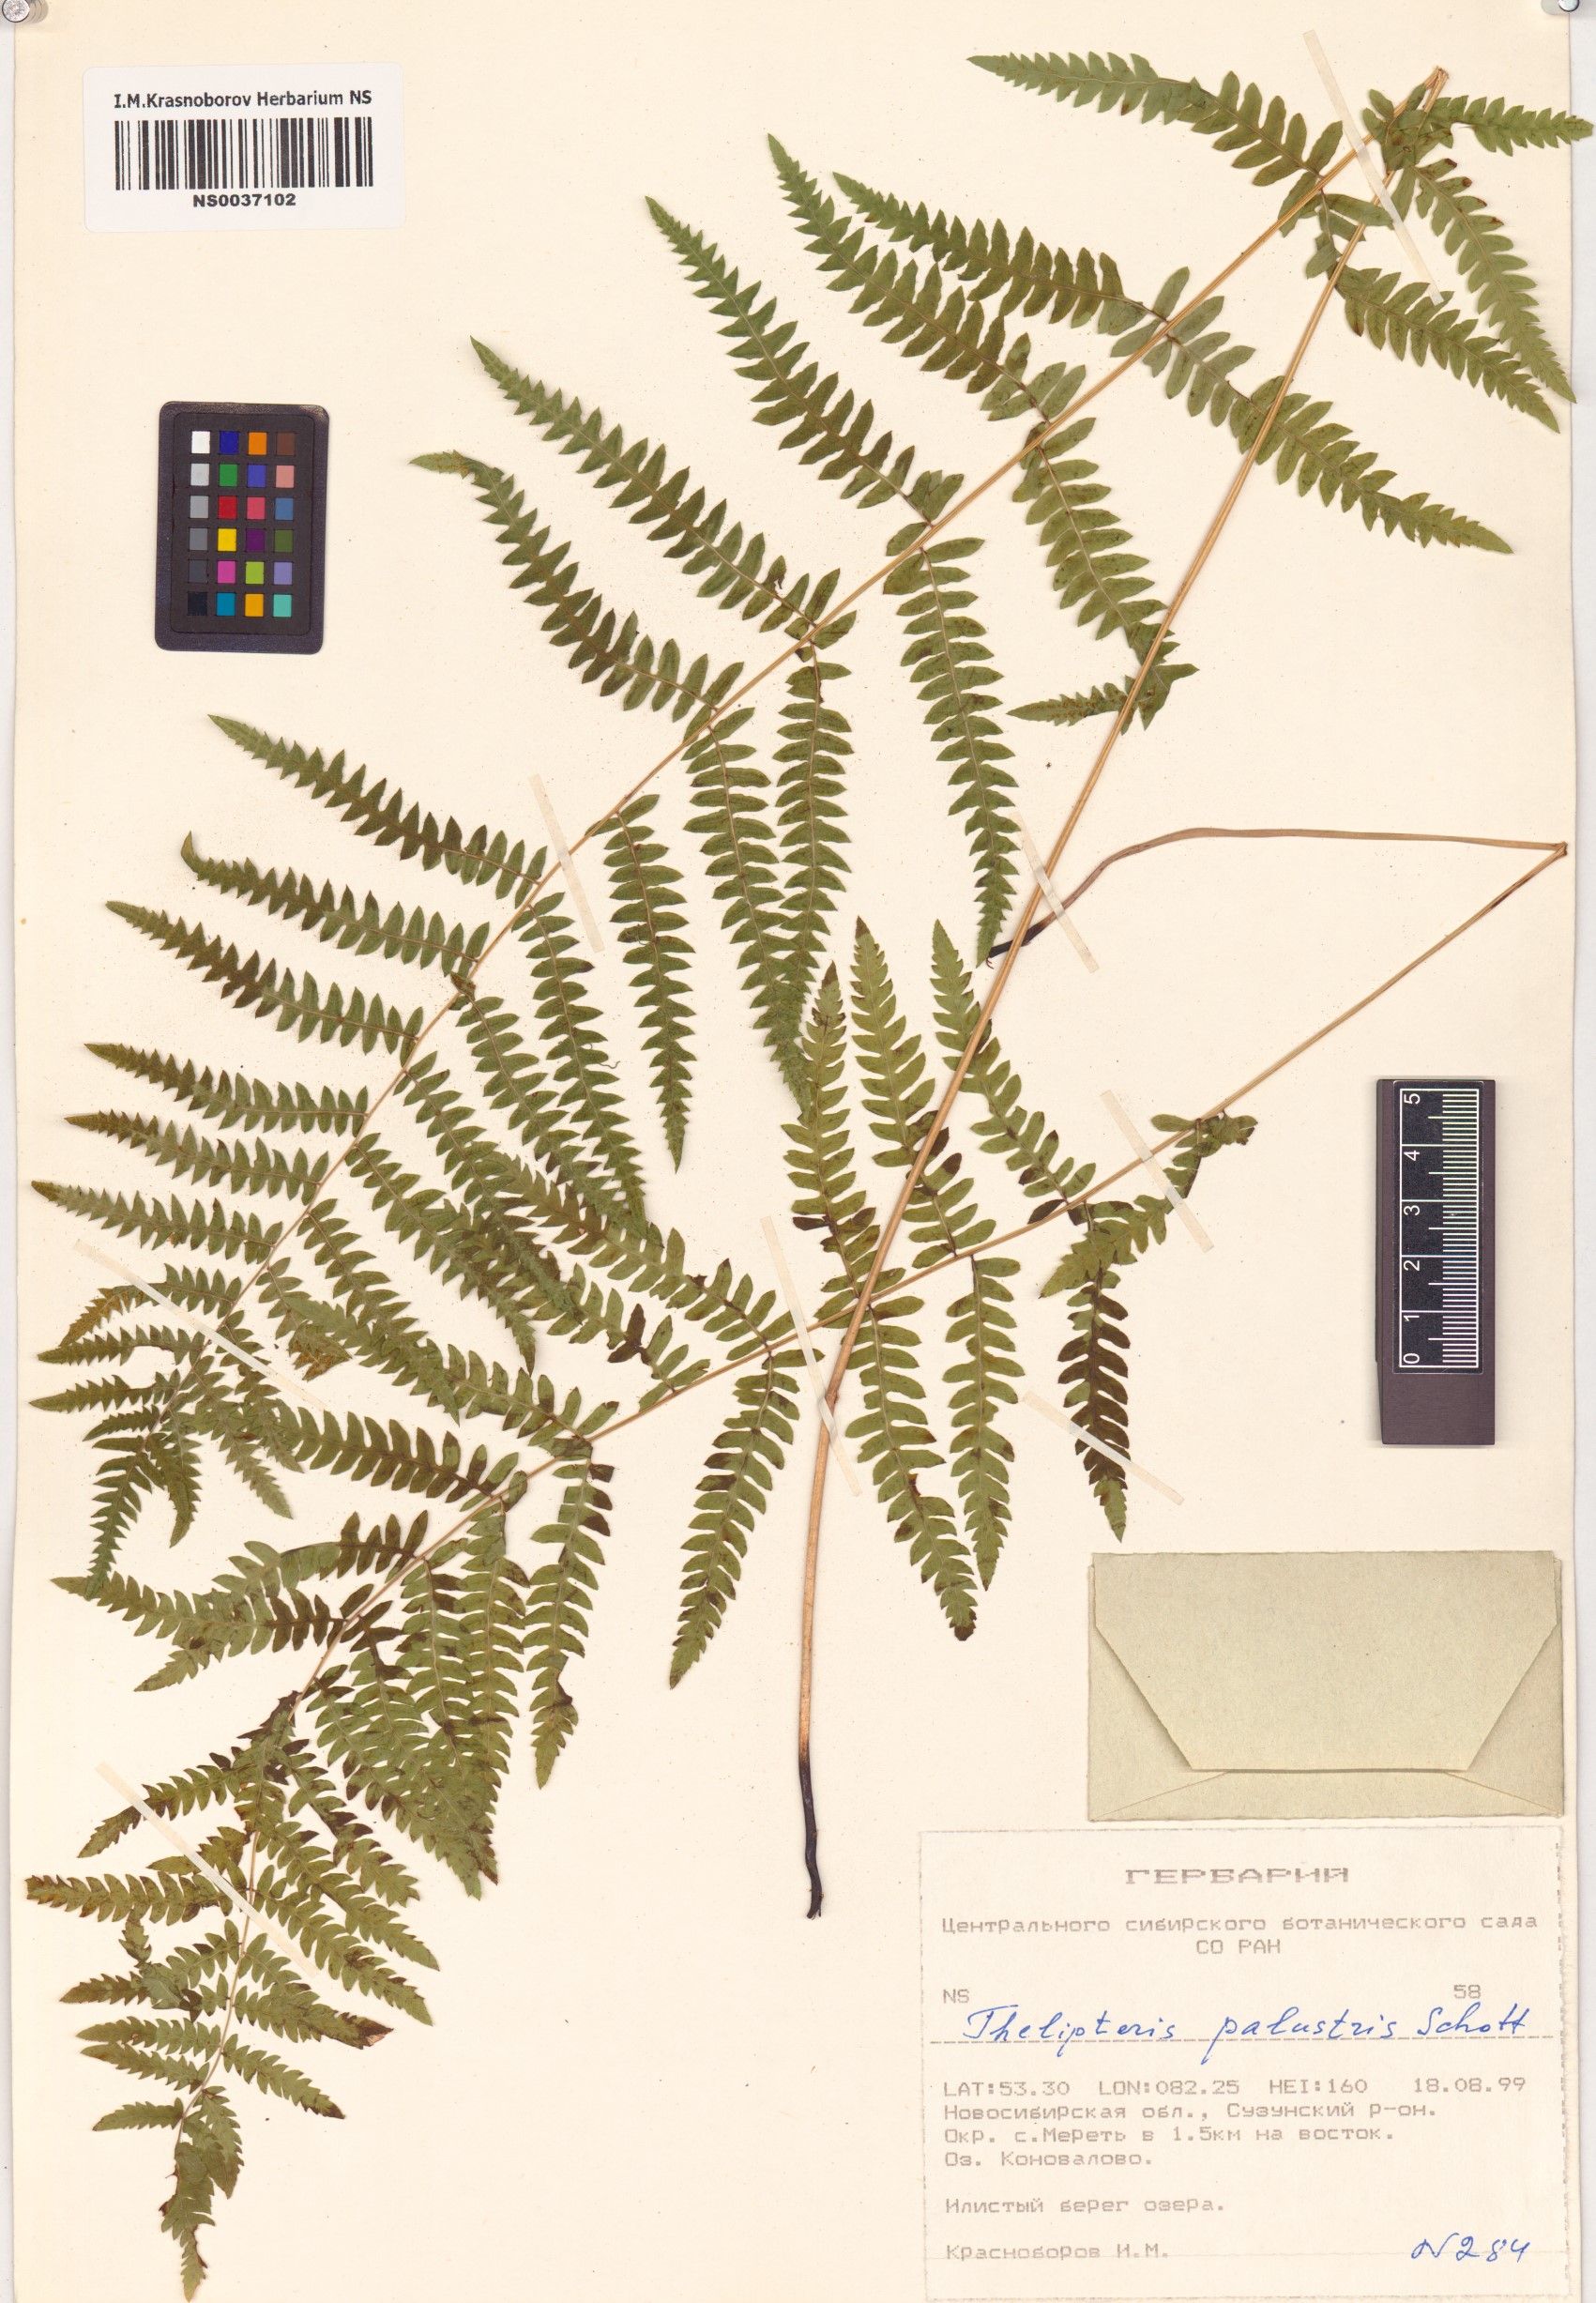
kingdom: Plantae
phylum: Tracheophyta
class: Polypodiopsida
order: Polypodiales
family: Thelypteridaceae
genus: Thelypteris
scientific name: Thelypteris palustris
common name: Marsh fern
